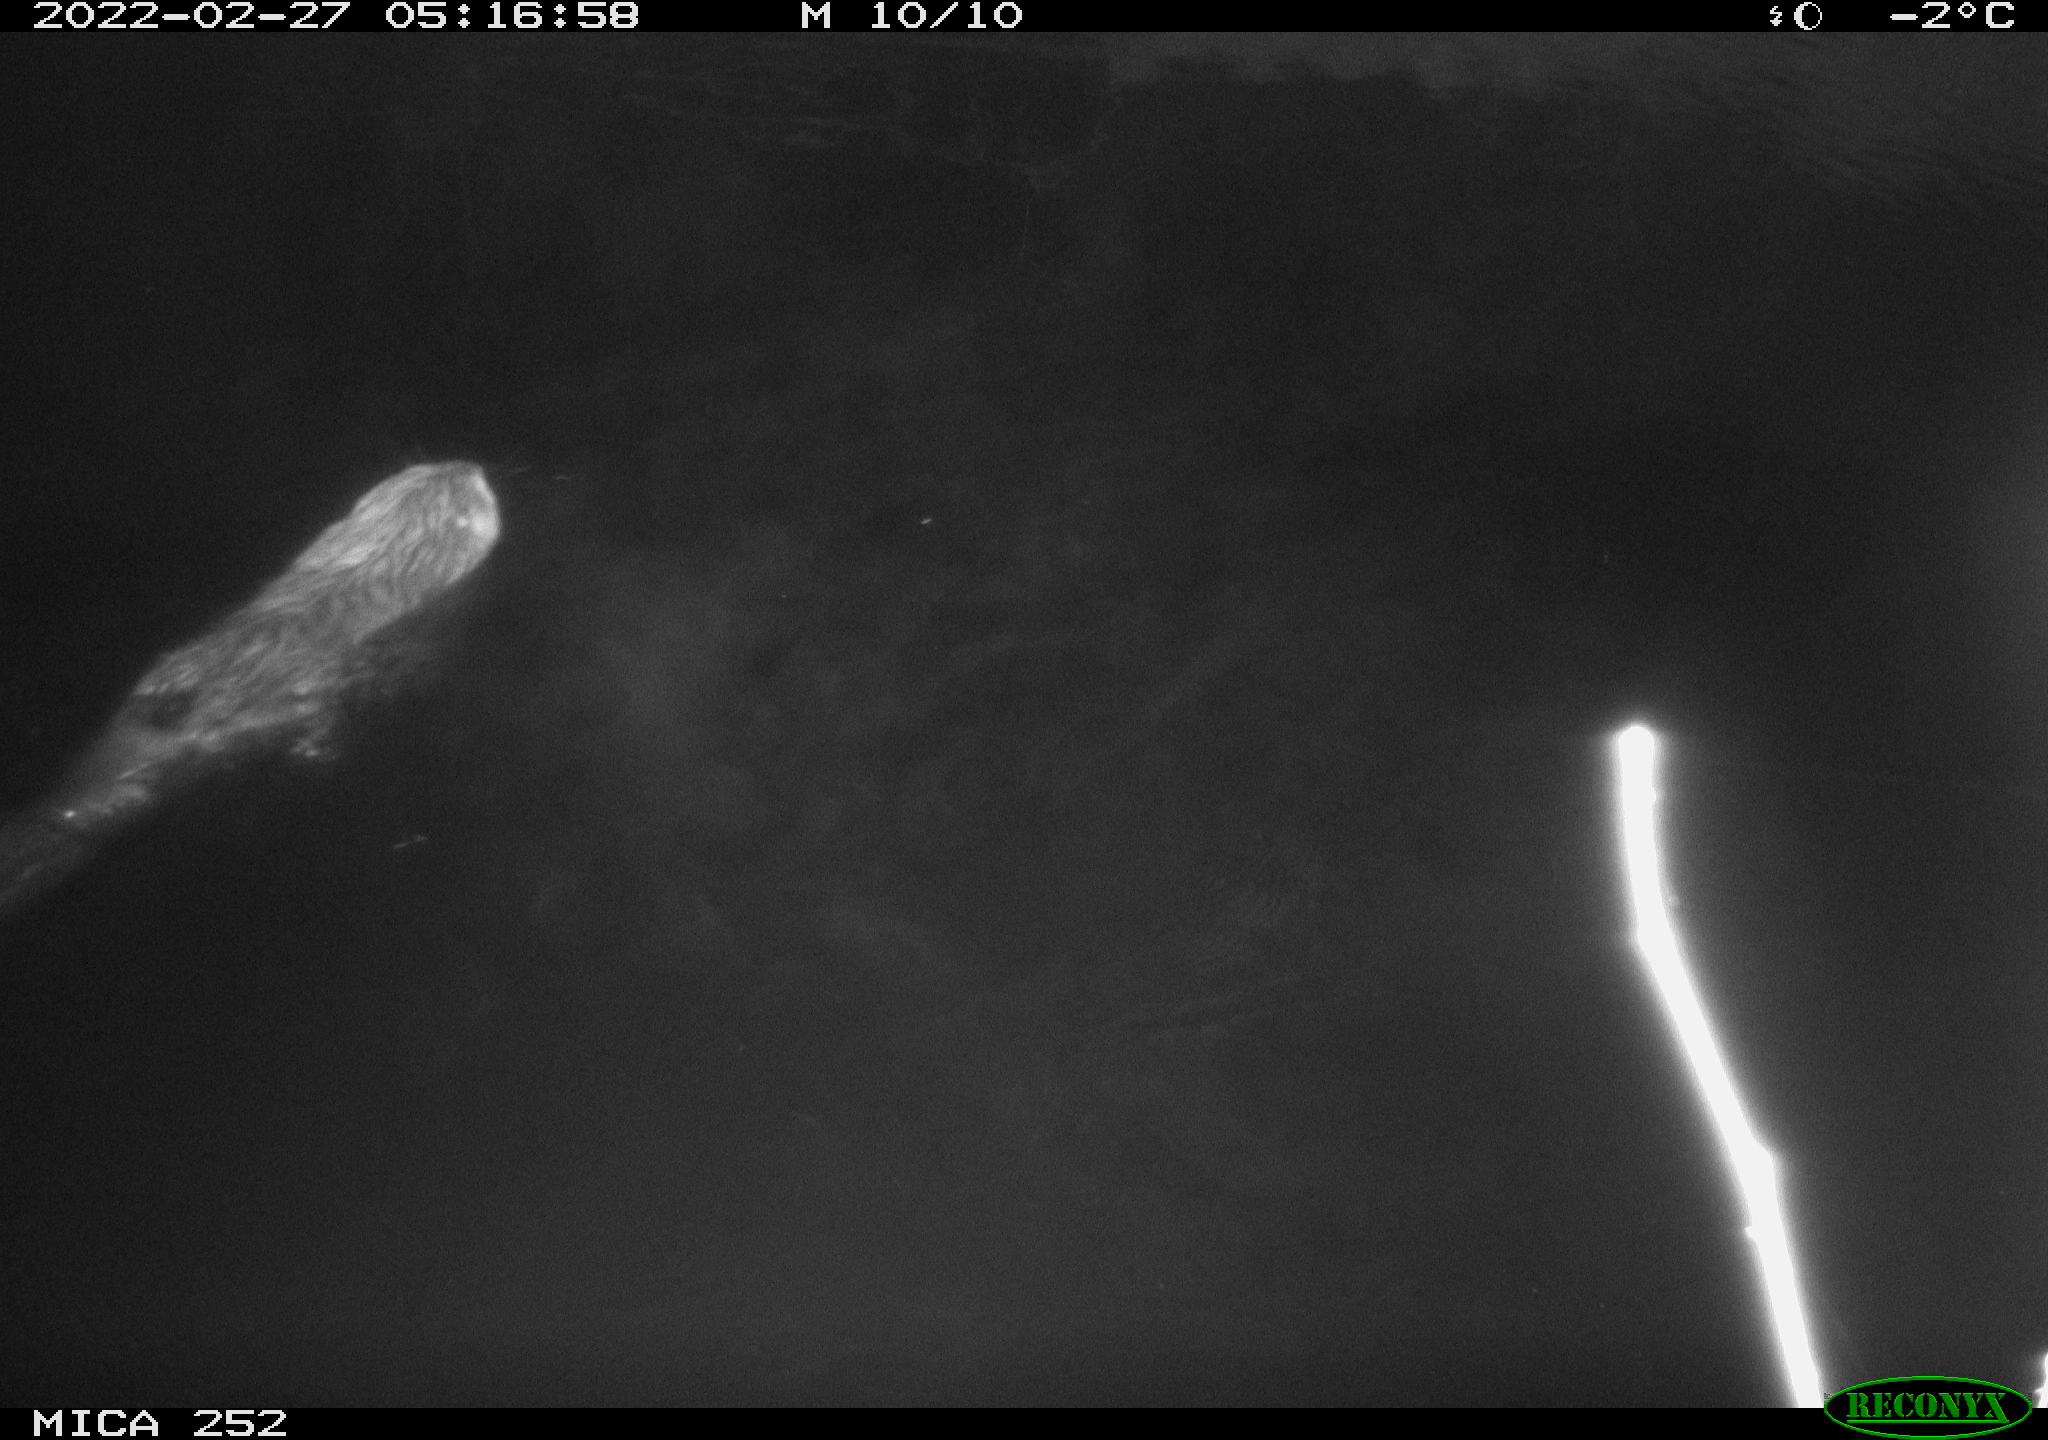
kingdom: Animalia
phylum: Chordata
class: Mammalia
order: Rodentia
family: Castoridae
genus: Castor
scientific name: Castor fiber
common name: Eurasian beaver
